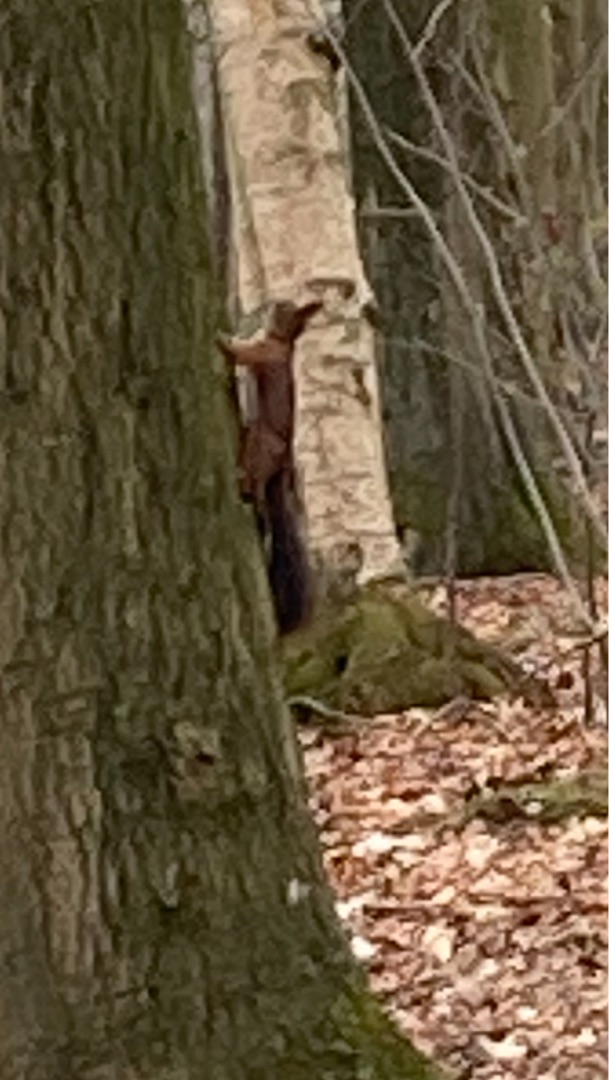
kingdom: Animalia
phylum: Chordata
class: Mammalia
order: Rodentia
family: Sciuridae
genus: Sciurus
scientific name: Sciurus vulgaris
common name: Egern
